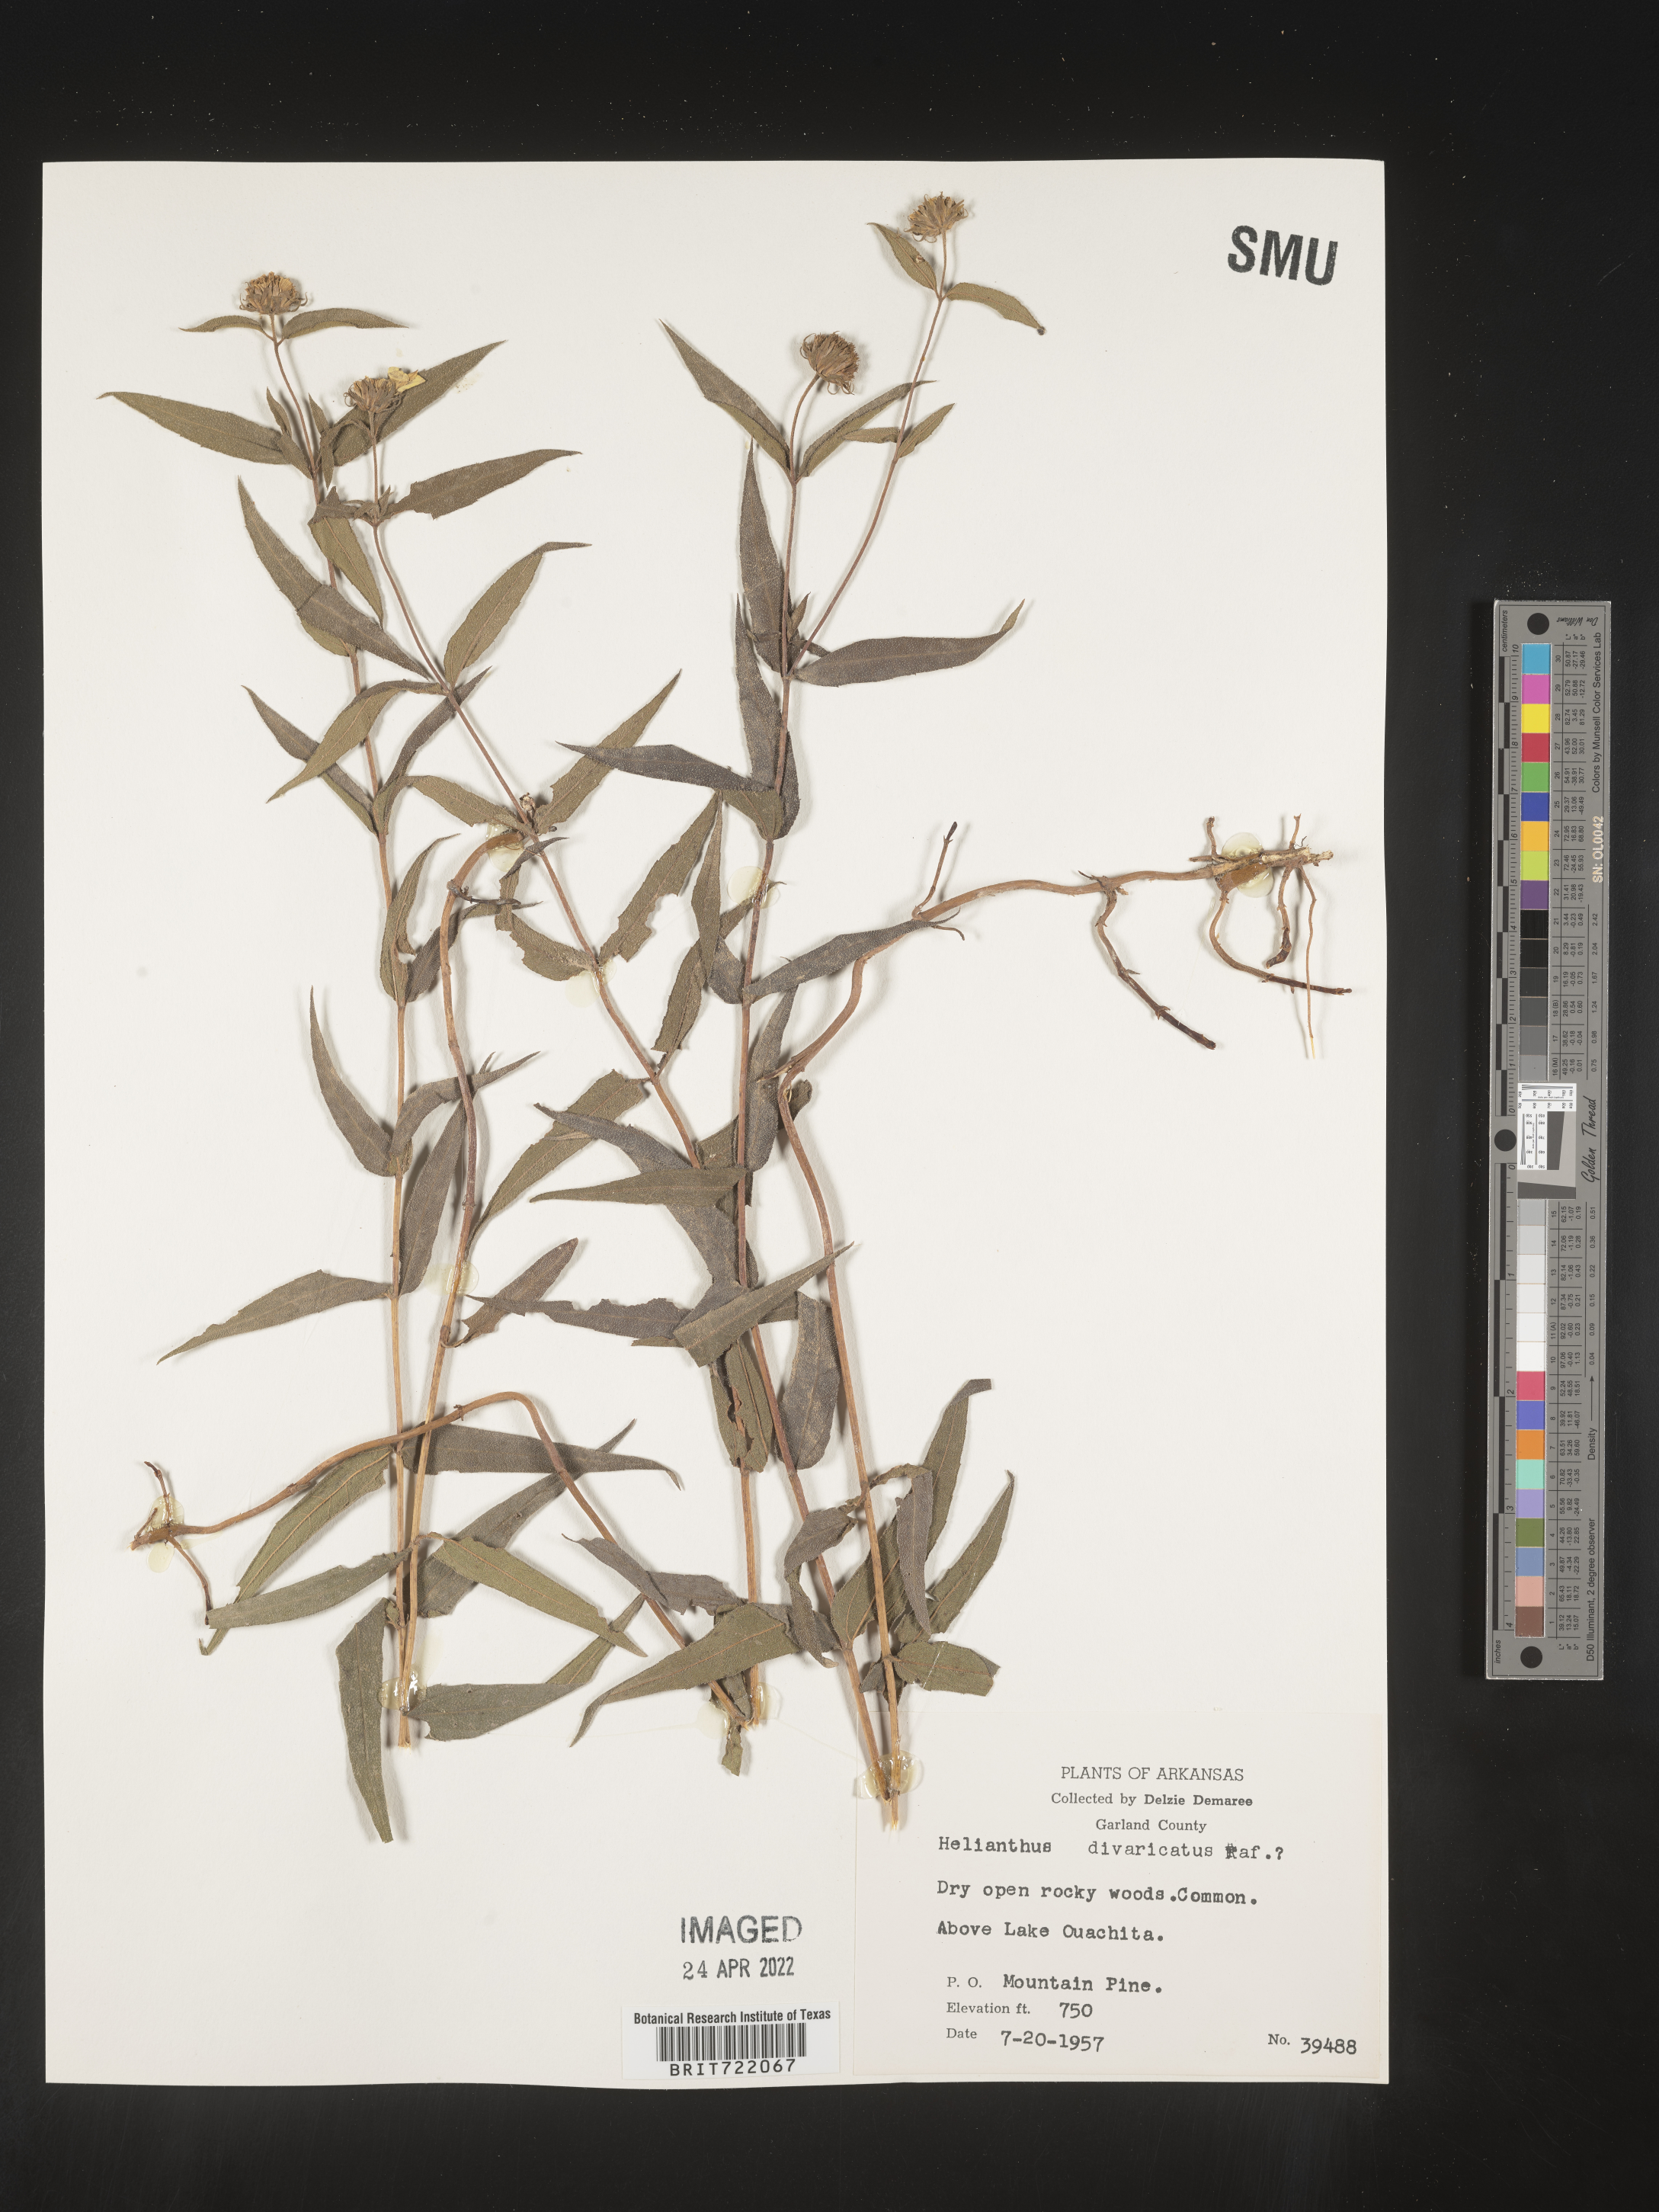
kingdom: Plantae
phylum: Tracheophyta
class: Magnoliopsida
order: Asterales
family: Asteraceae
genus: Helianthus
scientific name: Helianthus divaricatus
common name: Divergent sunflower
